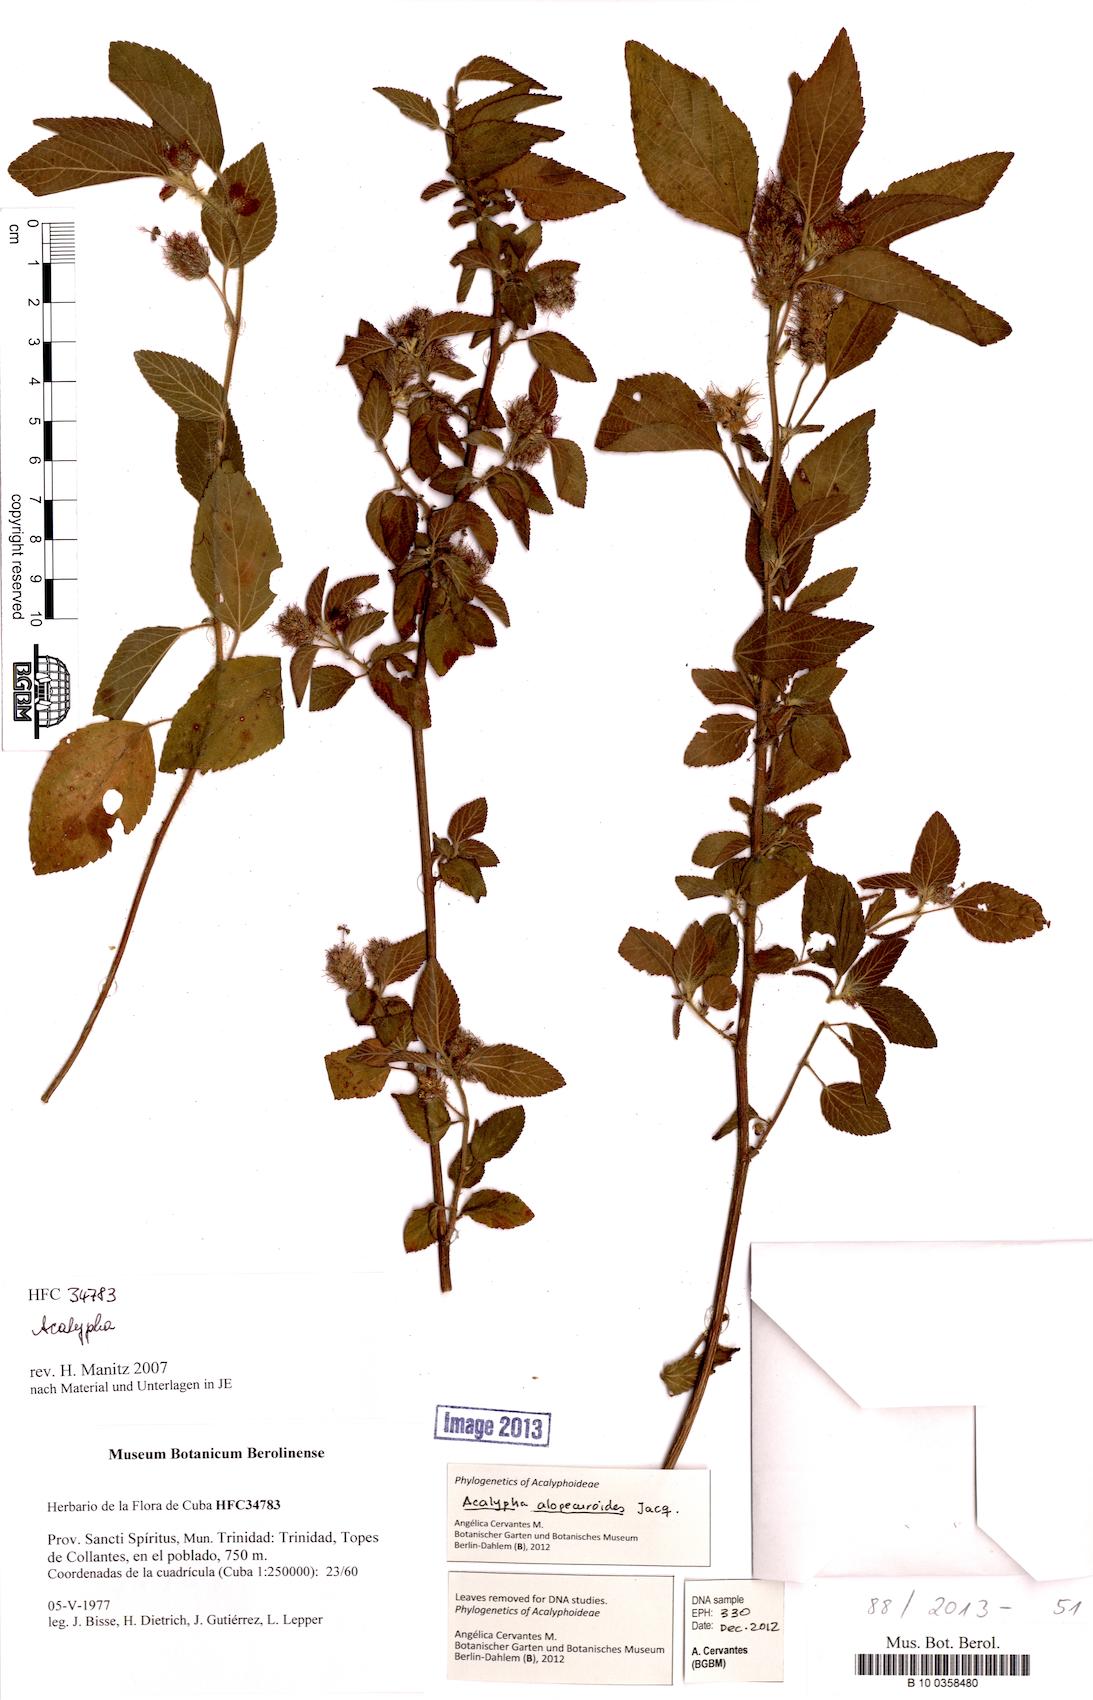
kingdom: Plantae
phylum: Tracheophyta
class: Magnoliopsida
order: Malpighiales
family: Euphorbiaceae
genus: Acalypha
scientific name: Acalypha alopecuroidea
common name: Foxtail copperleaf
